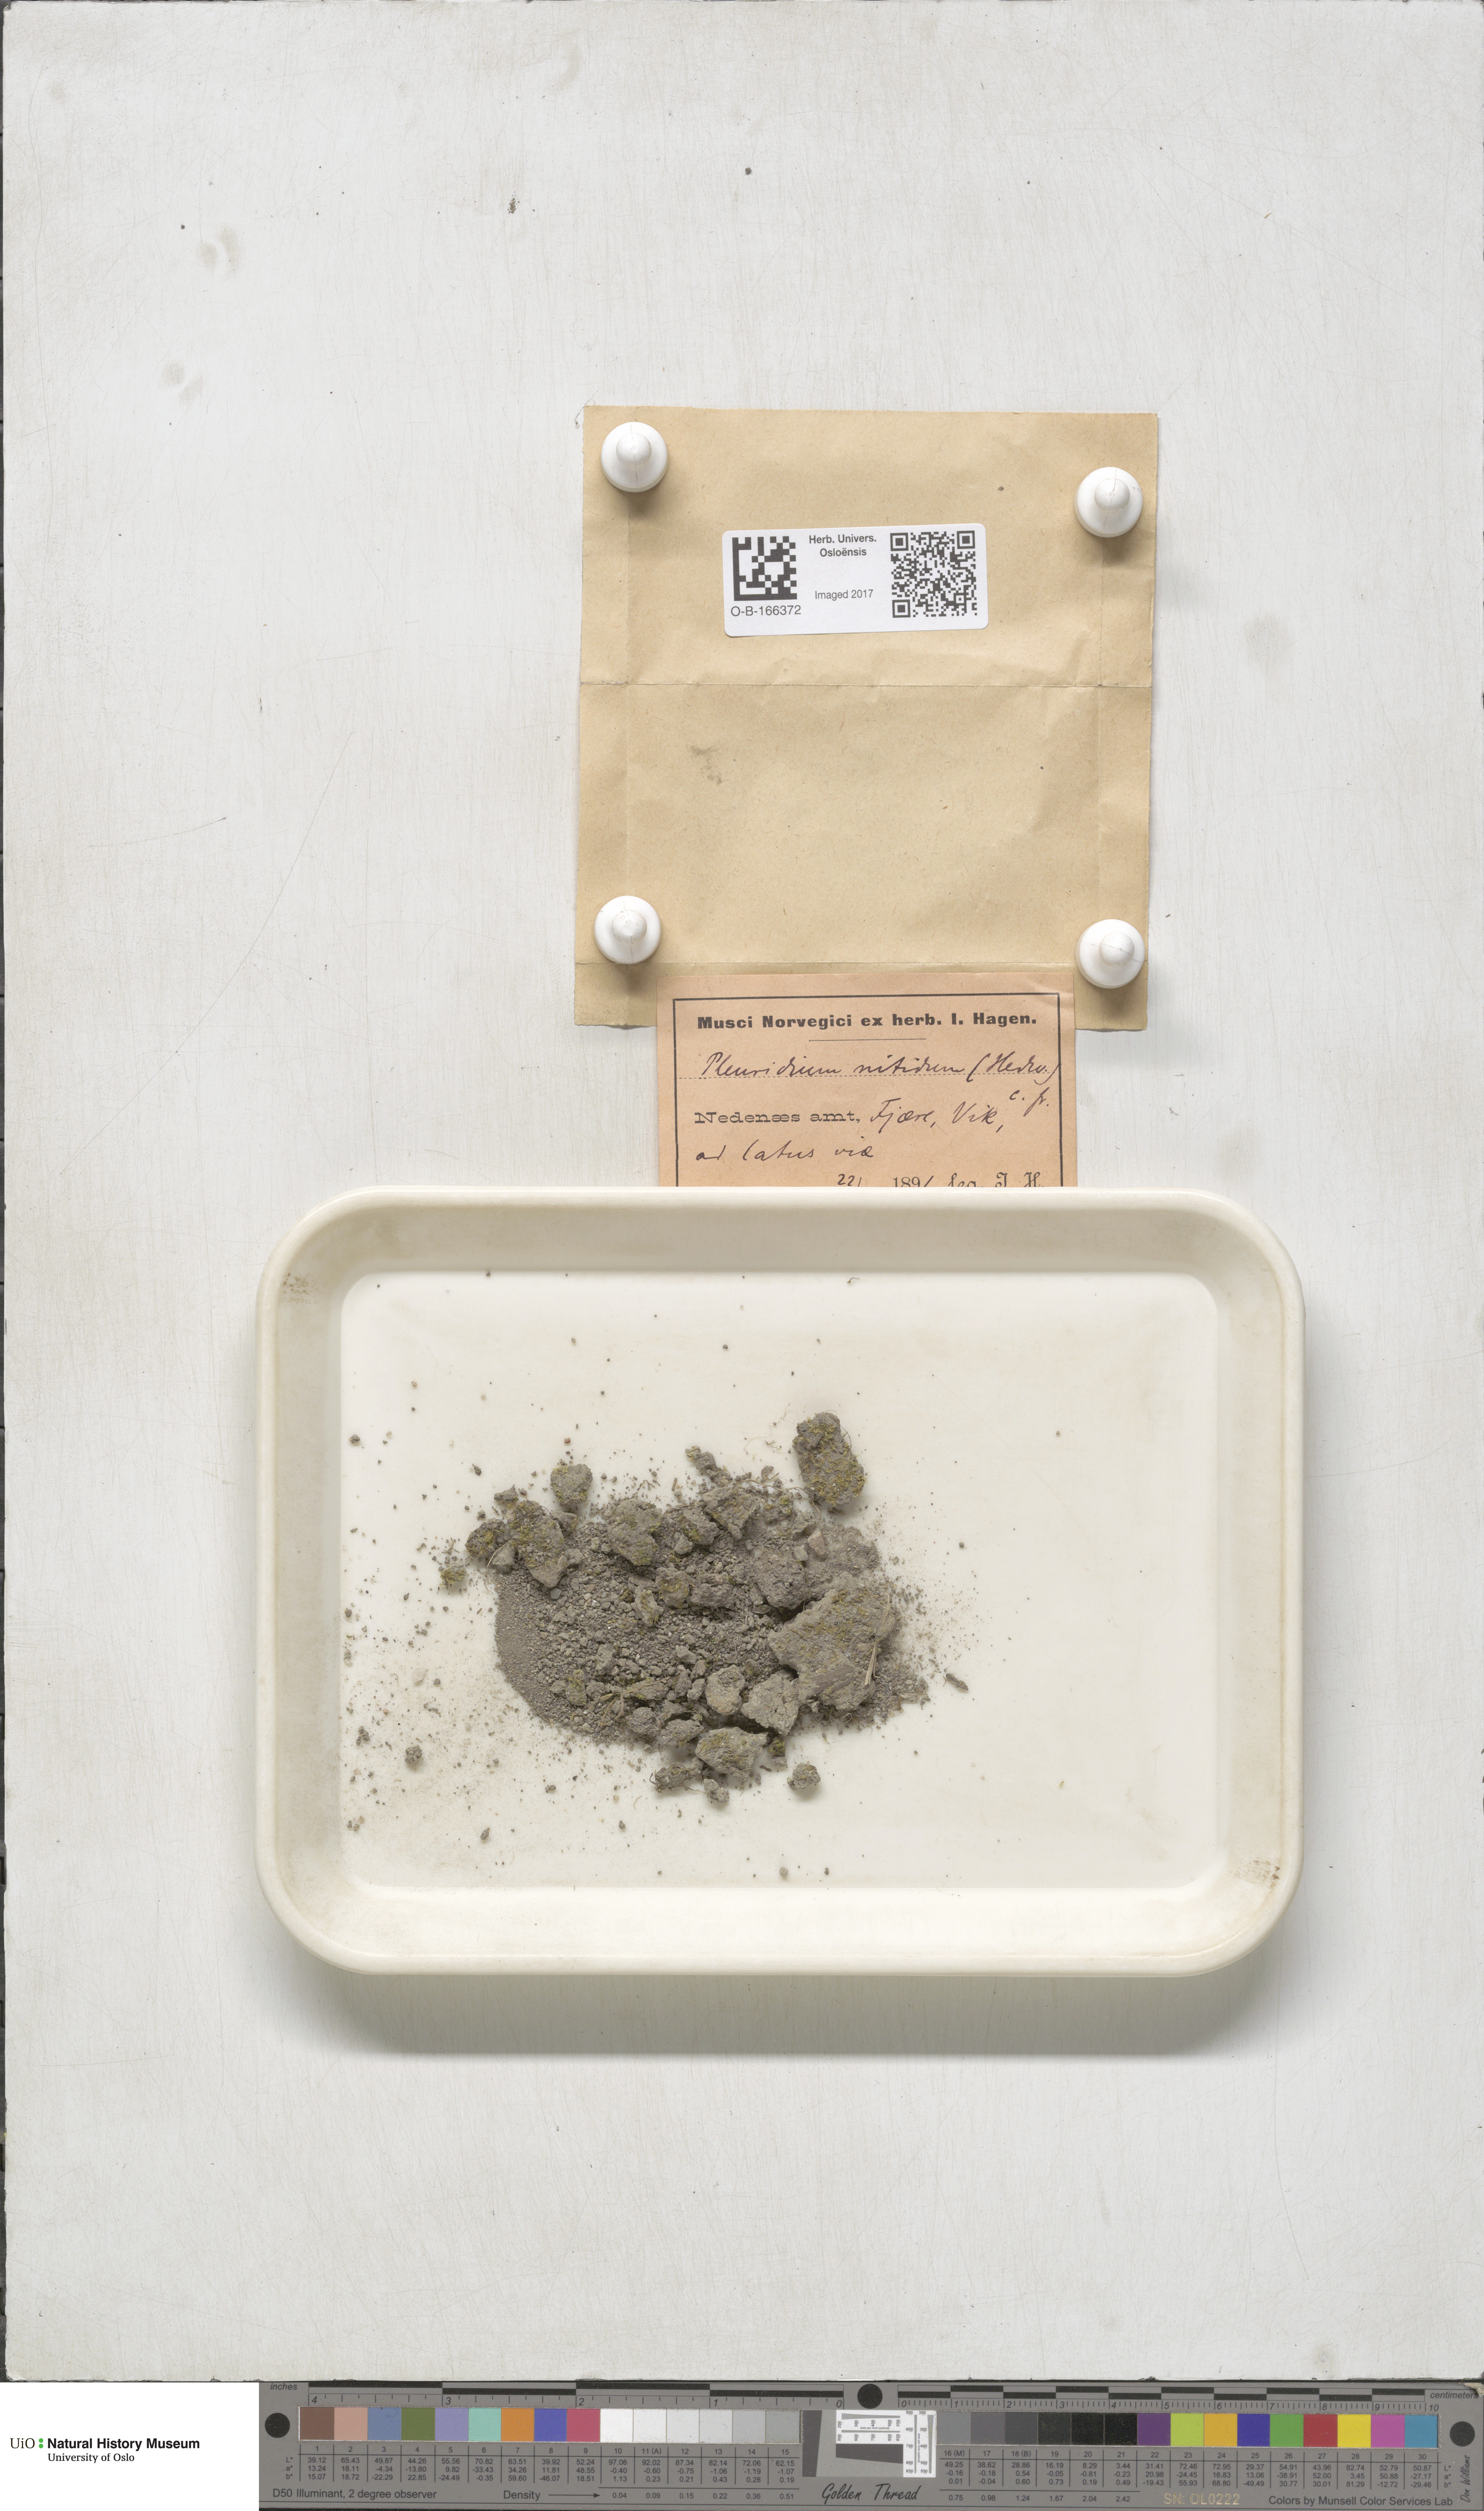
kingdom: Plantae
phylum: Bryophyta
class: Bryopsida
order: Dicranales
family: Ditrichaceae
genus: Pseudephemerum
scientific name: Pseudephemerum nitidum
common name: Delicate earth-moss
